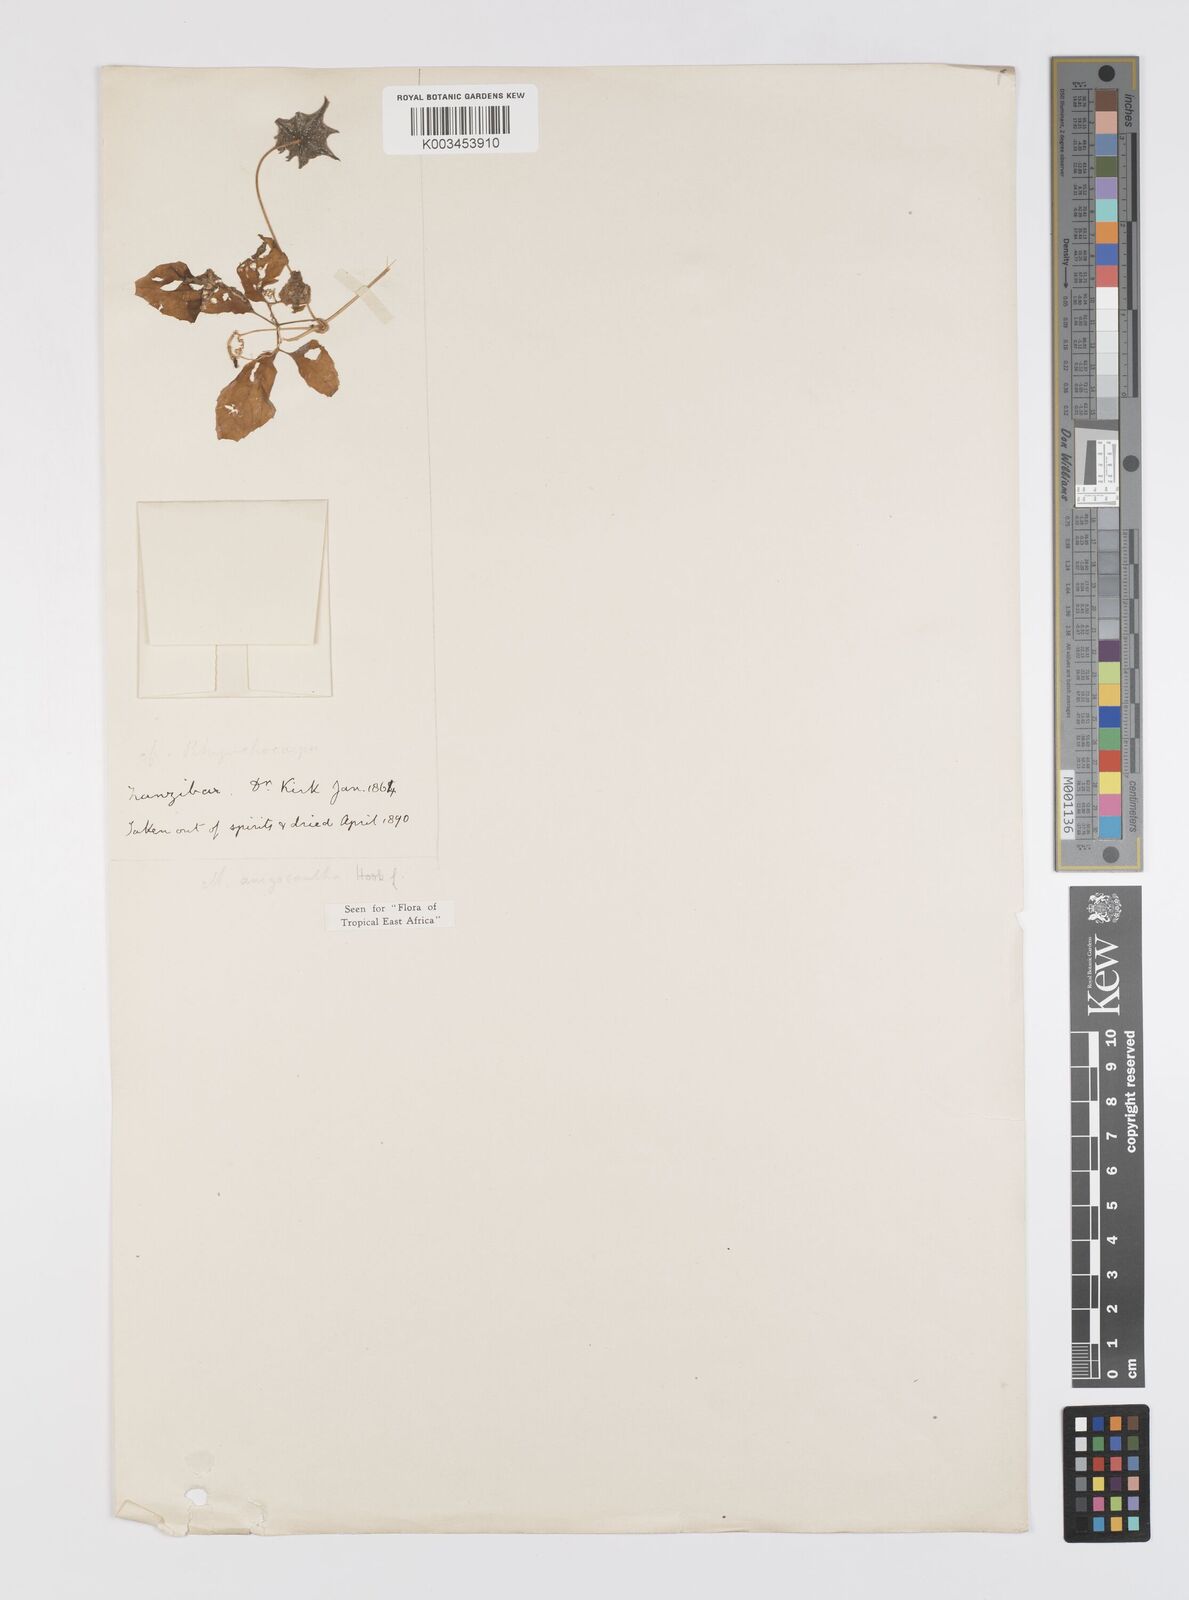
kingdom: Plantae
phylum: Tracheophyta
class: Magnoliopsida
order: Cucurbitales
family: Cucurbitaceae
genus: Momordica
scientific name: Momordica anigosantha
